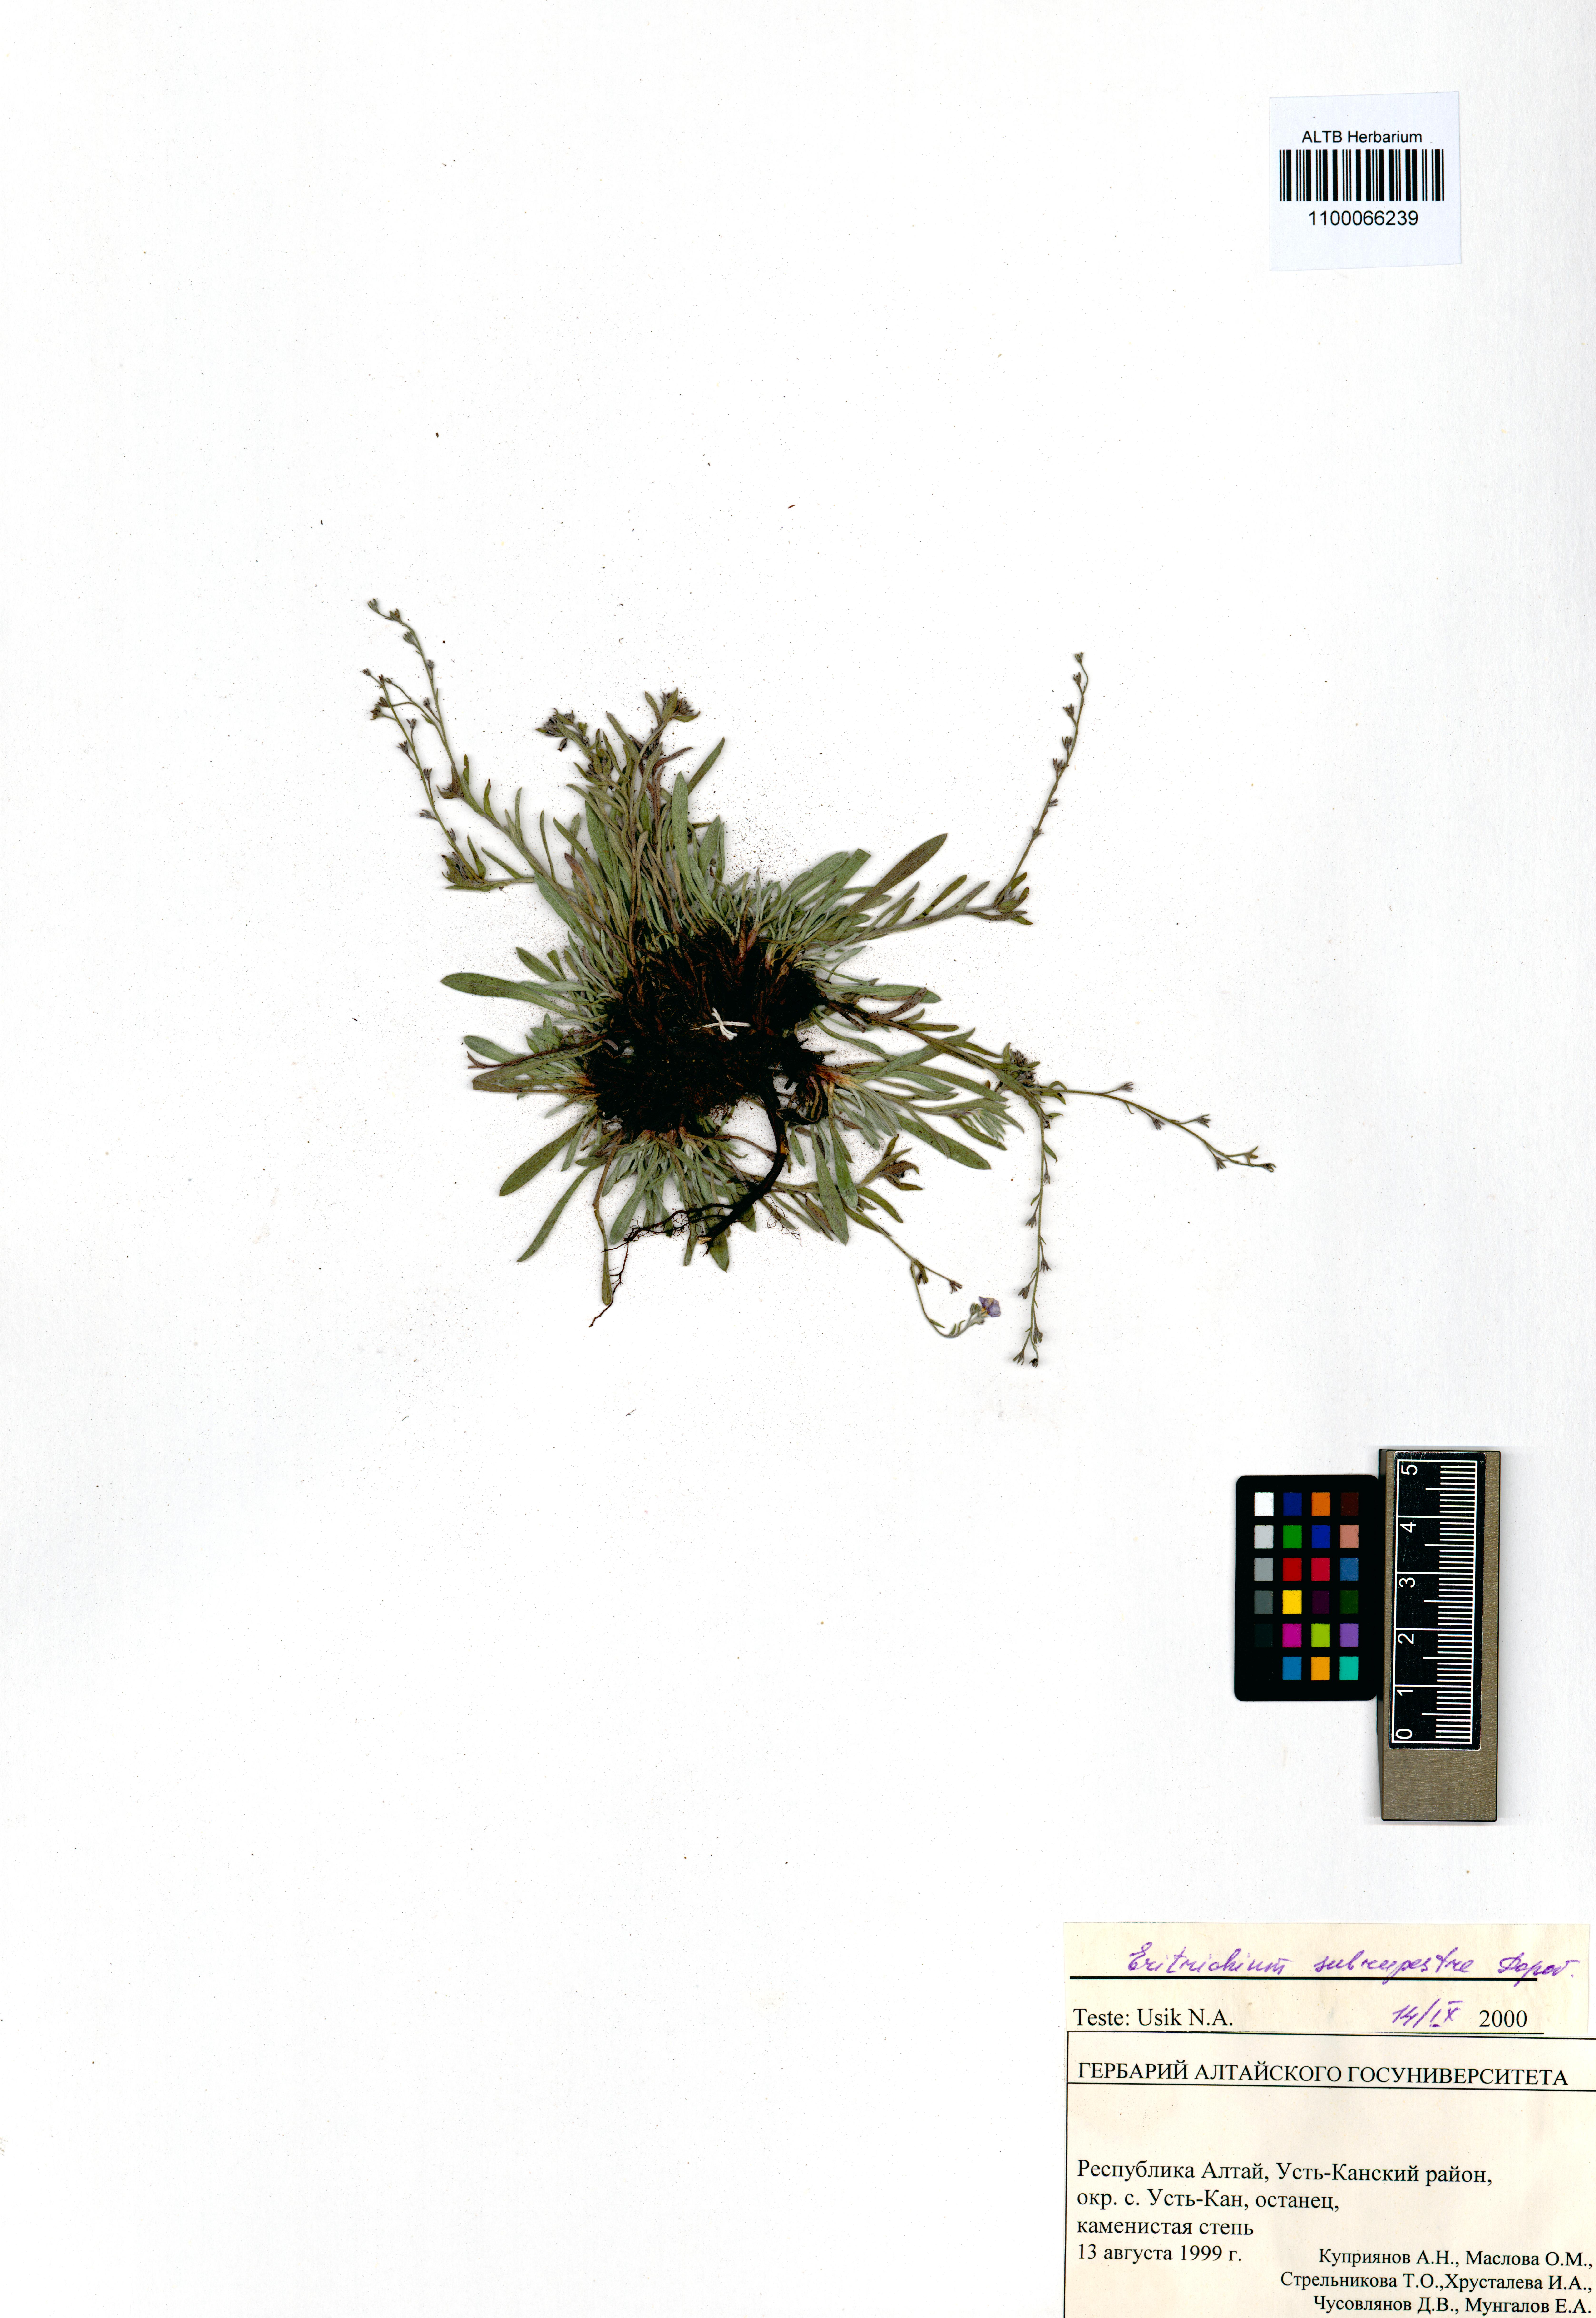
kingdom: Plantae
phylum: Tracheophyta
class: Magnoliopsida
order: Boraginales
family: Boraginaceae
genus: Eritrichium
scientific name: Eritrichium pauciflorum
